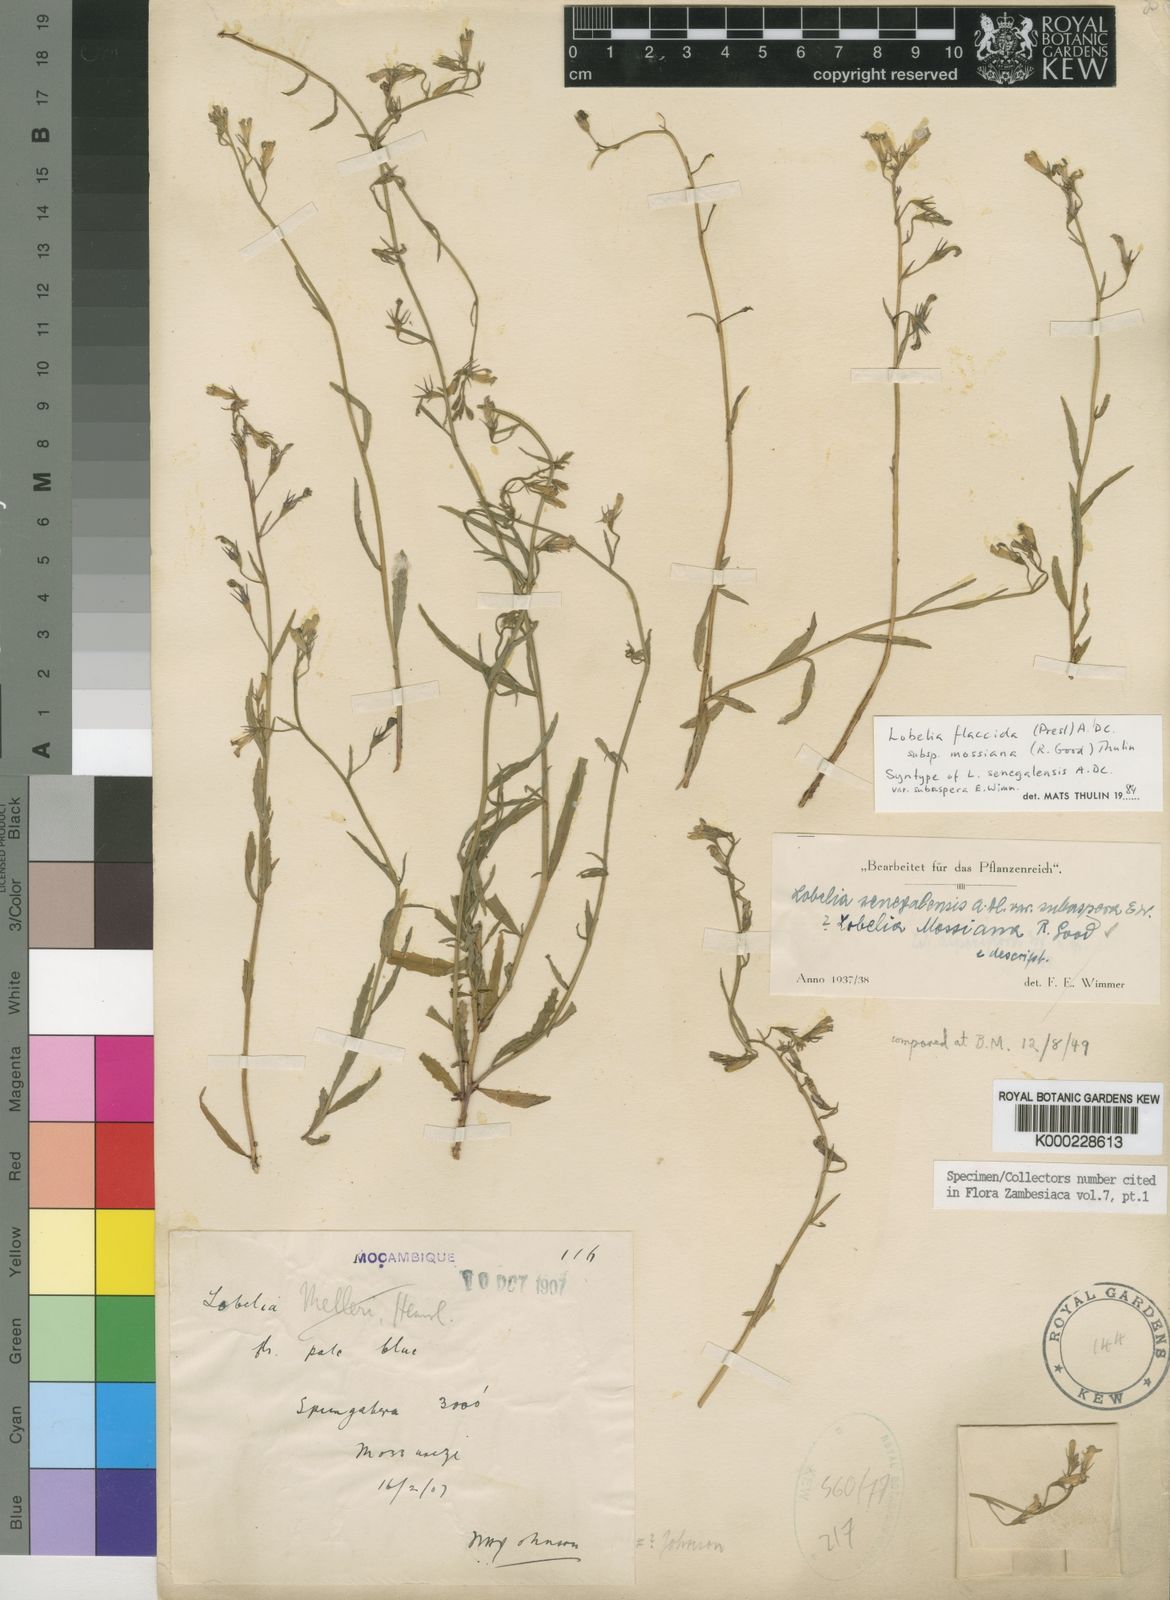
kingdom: Plantae
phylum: Tracheophyta
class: Magnoliopsida
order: Asterales
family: Campanulaceae
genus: Lobelia
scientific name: Lobelia flaccida
